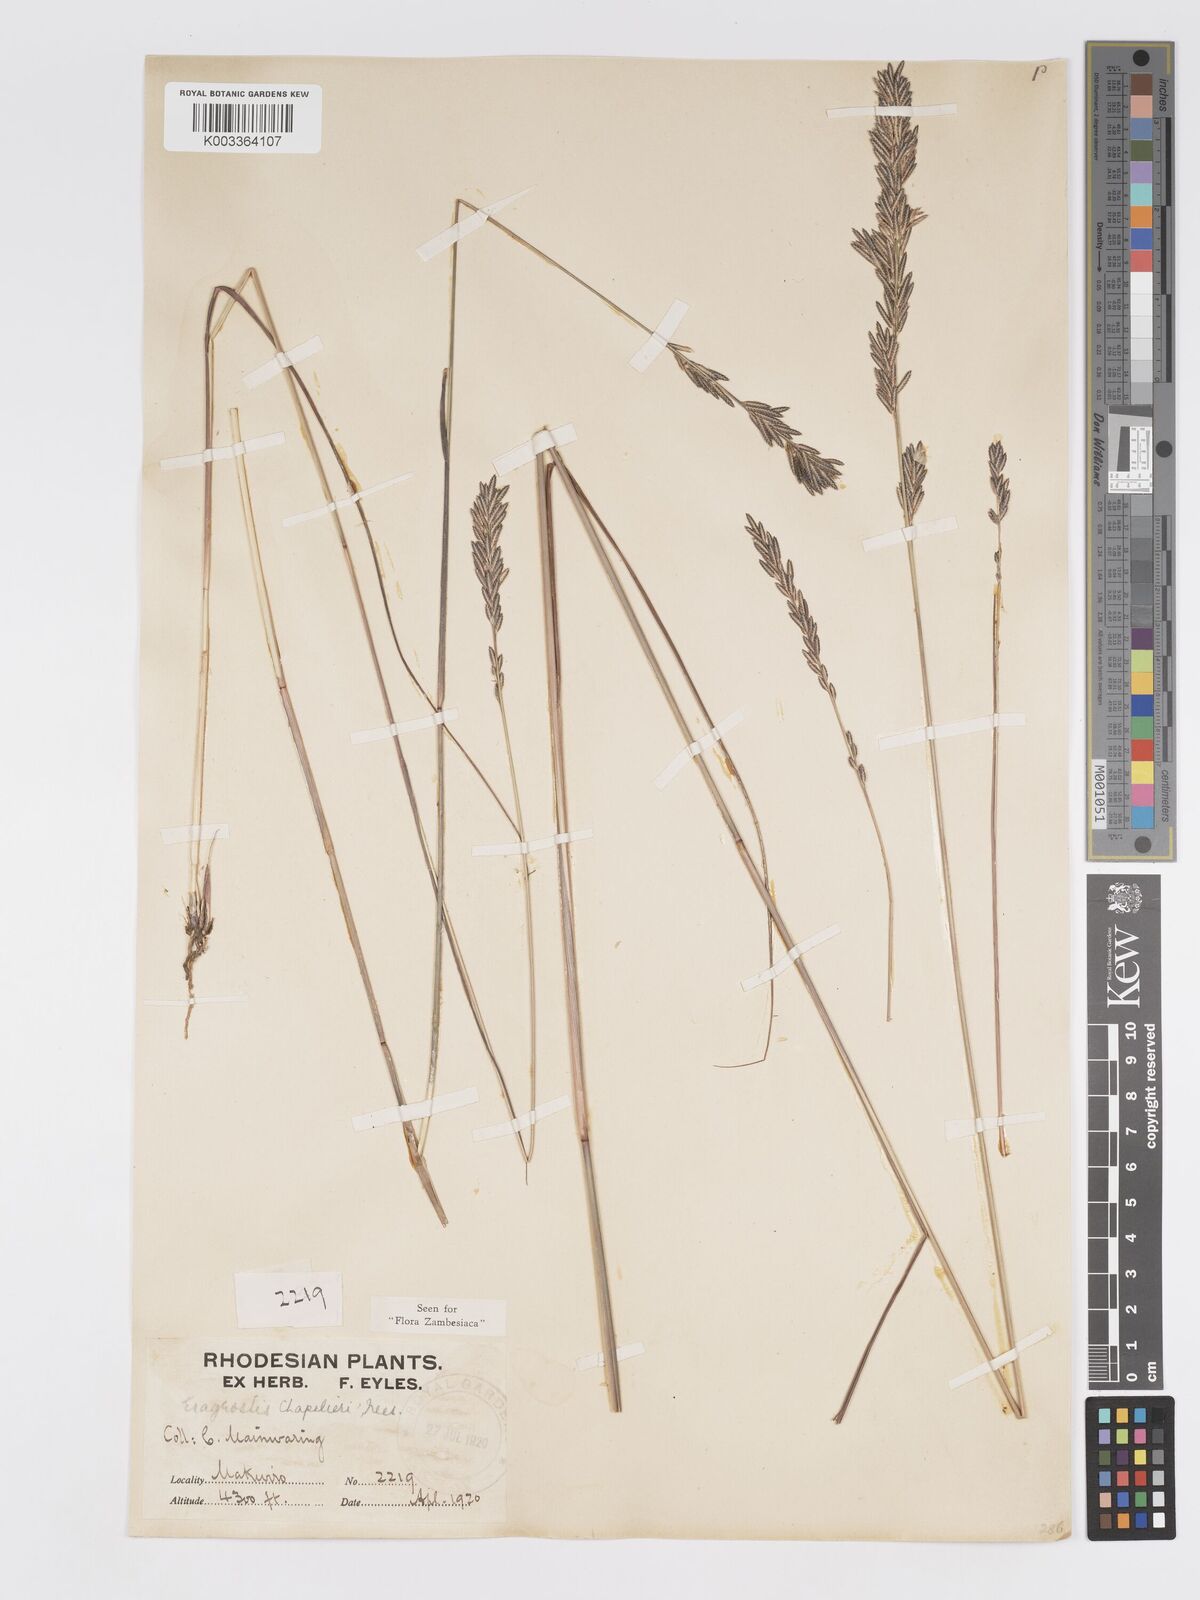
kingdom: Plantae
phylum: Tracheophyta
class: Liliopsida
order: Poales
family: Poaceae
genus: Eragrostis
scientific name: Eragrostis chapelieri
